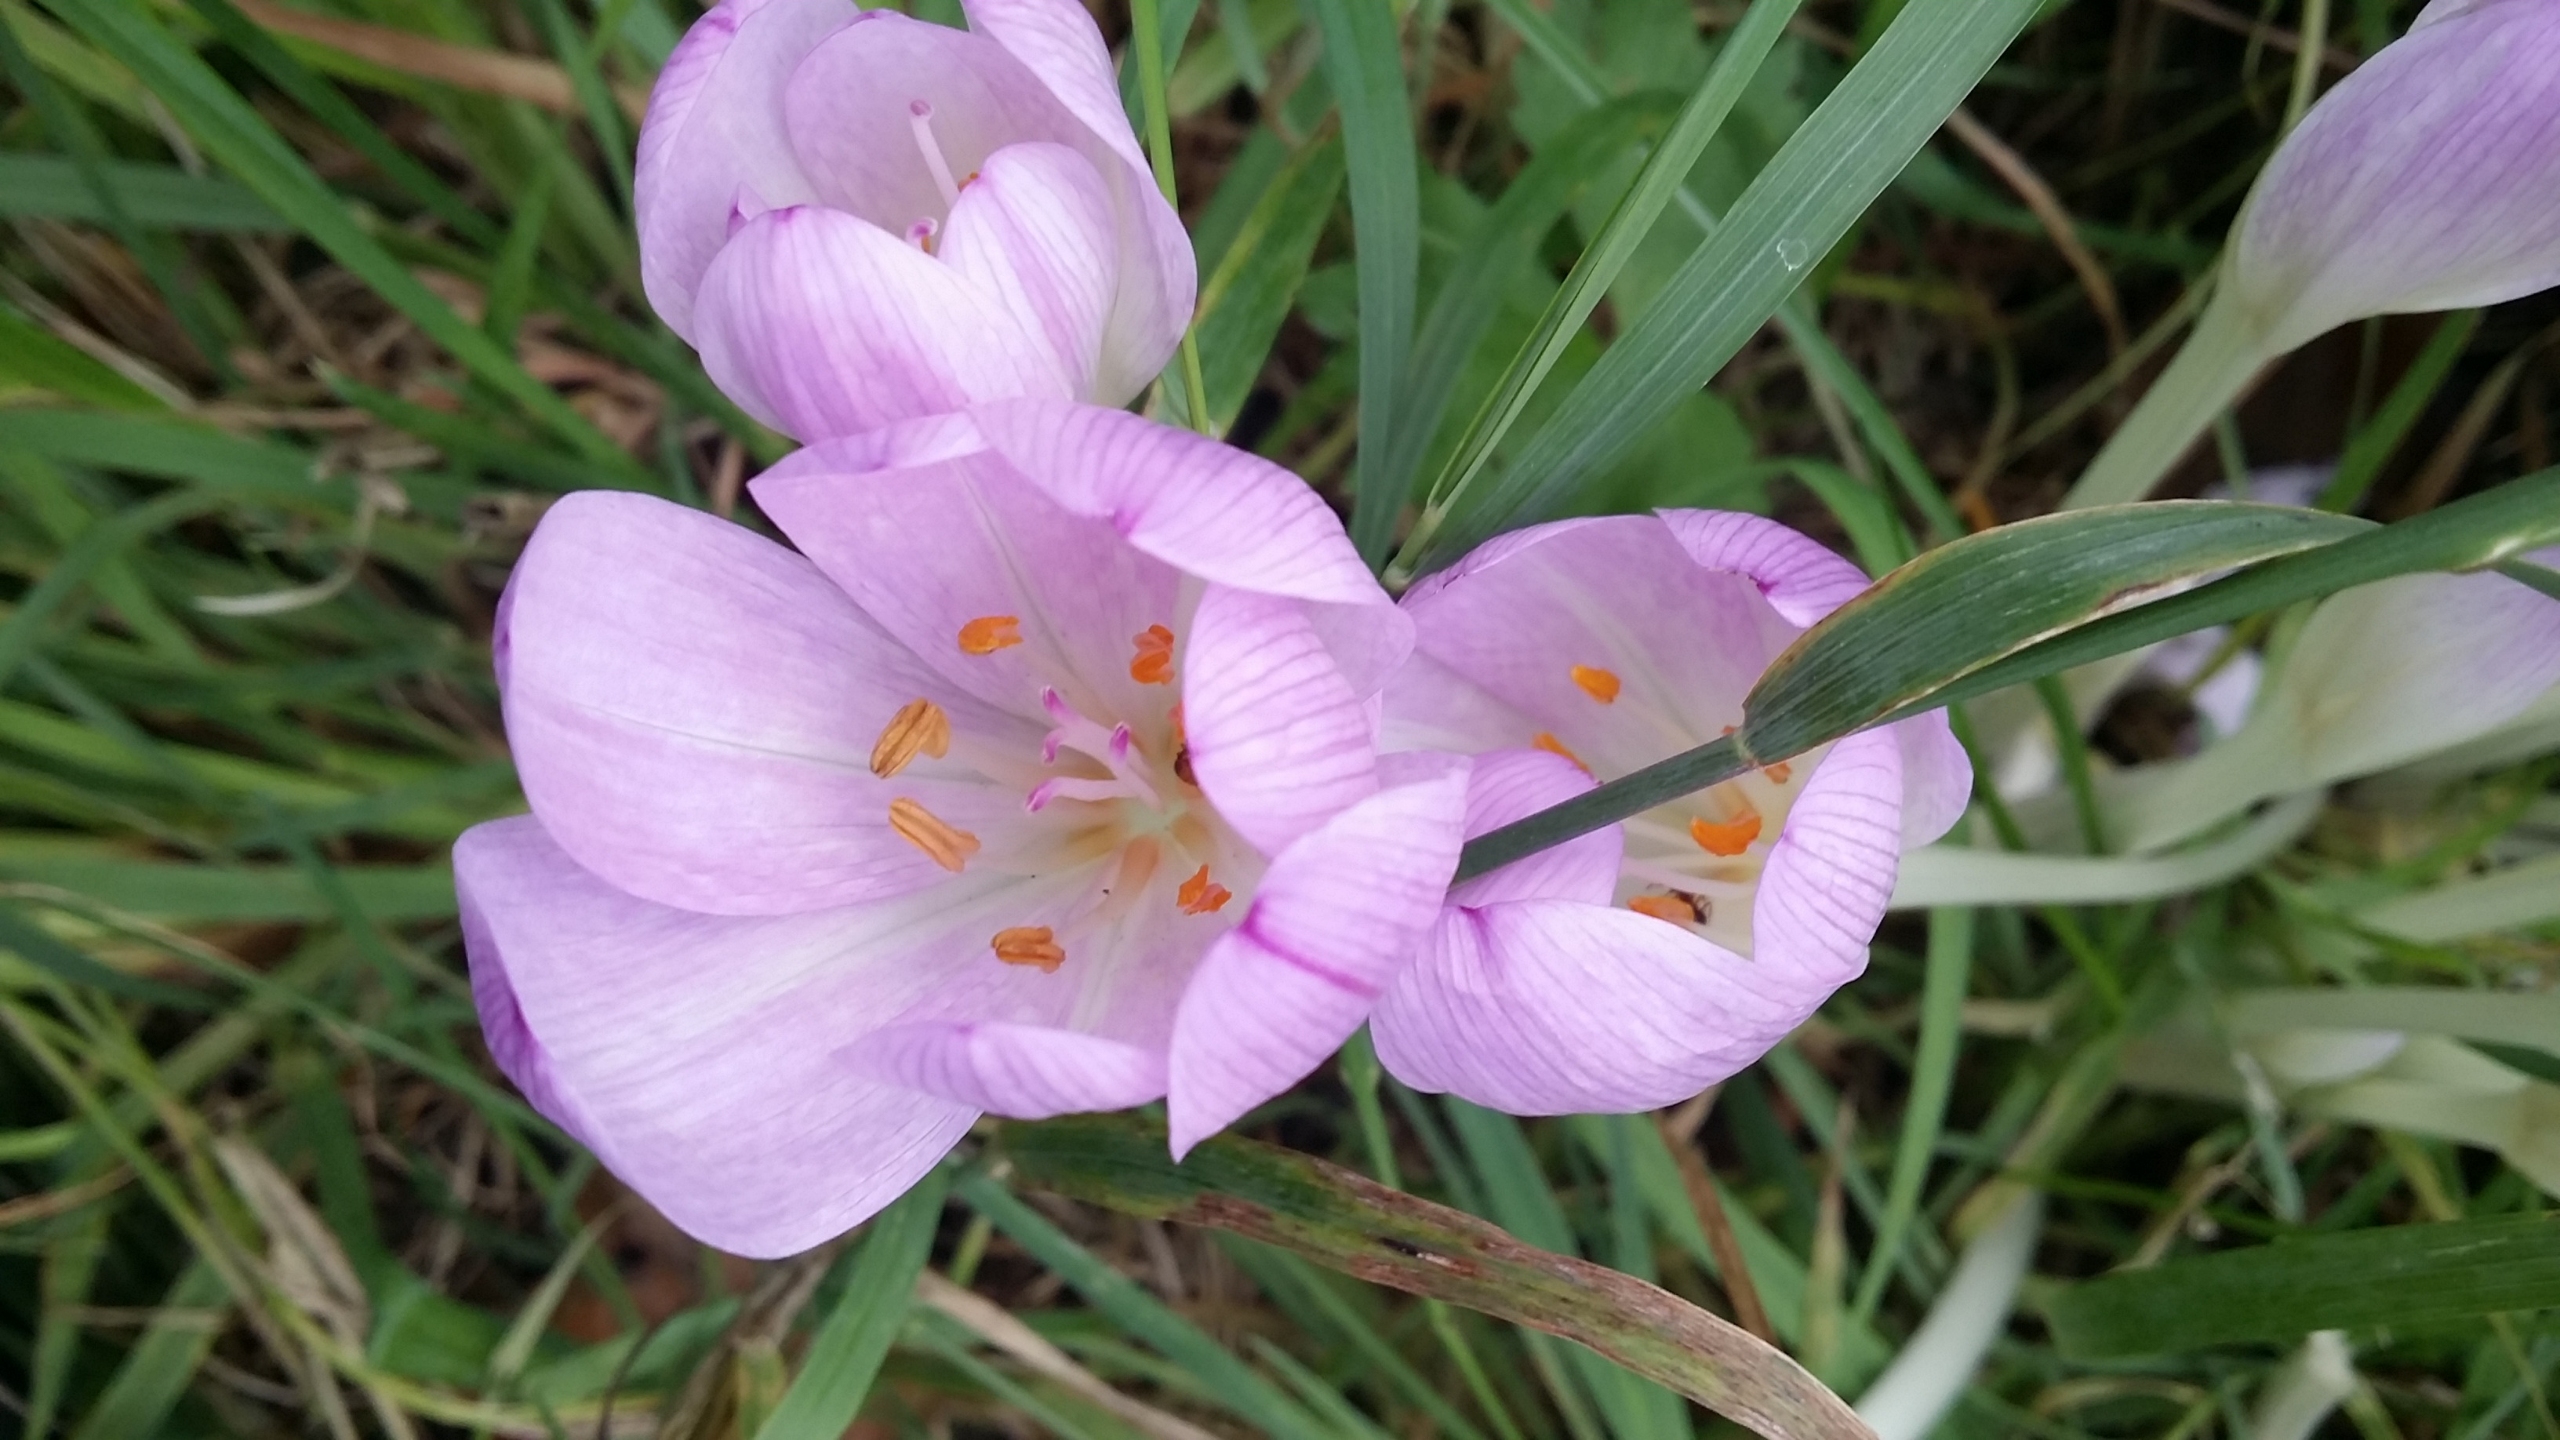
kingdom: Plantae
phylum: Tracheophyta
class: Liliopsida
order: Liliales
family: Colchicaceae
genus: Colchicum
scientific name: Colchicum autumnale
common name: Høst-tidløs
